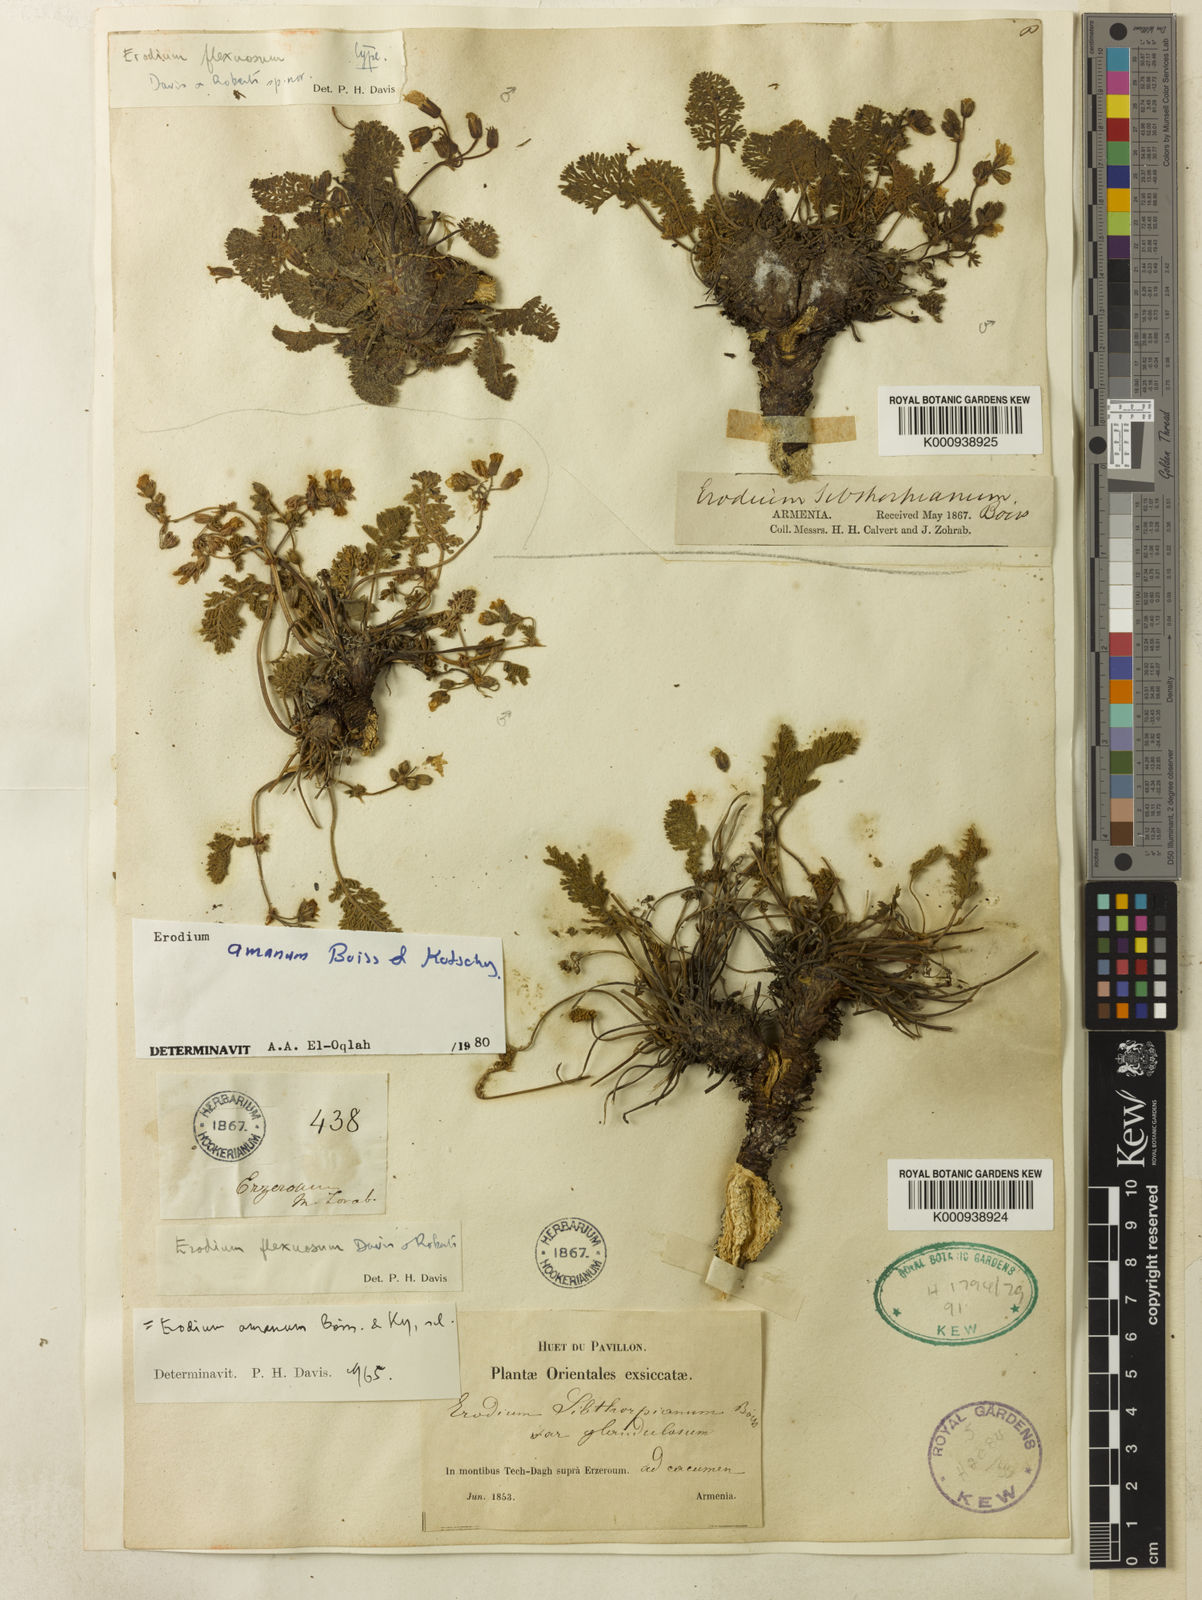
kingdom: Plantae
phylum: Tracheophyta
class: Magnoliopsida
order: Geraniales
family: Geraniaceae
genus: Erodium
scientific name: Erodium trichomanifolium
